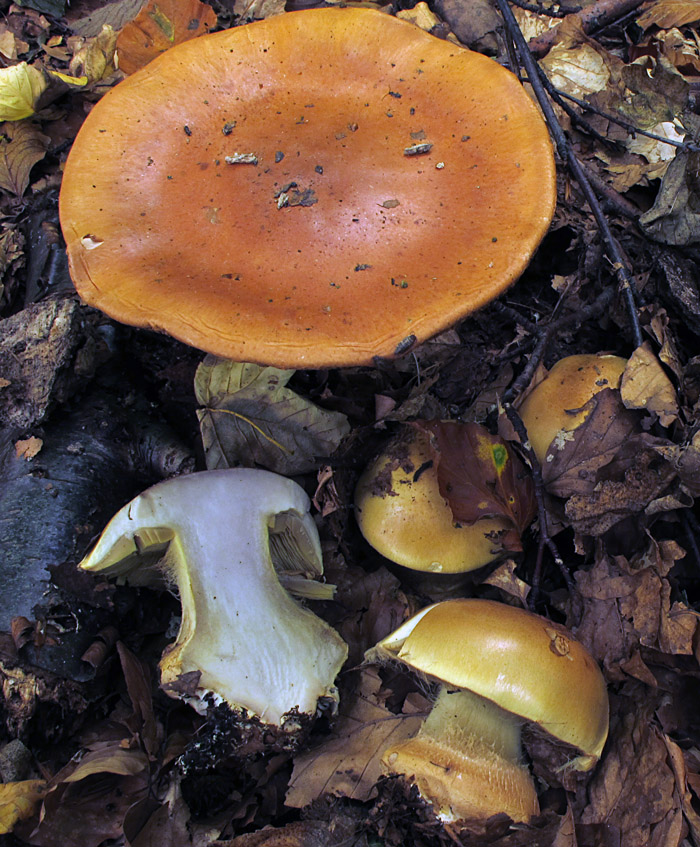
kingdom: Fungi
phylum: Basidiomycota
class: Agaricomycetes
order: Agaricales
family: Cortinariaceae
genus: Calonarius
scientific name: Calonarius elegantissimus
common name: orangegylden slørhat
